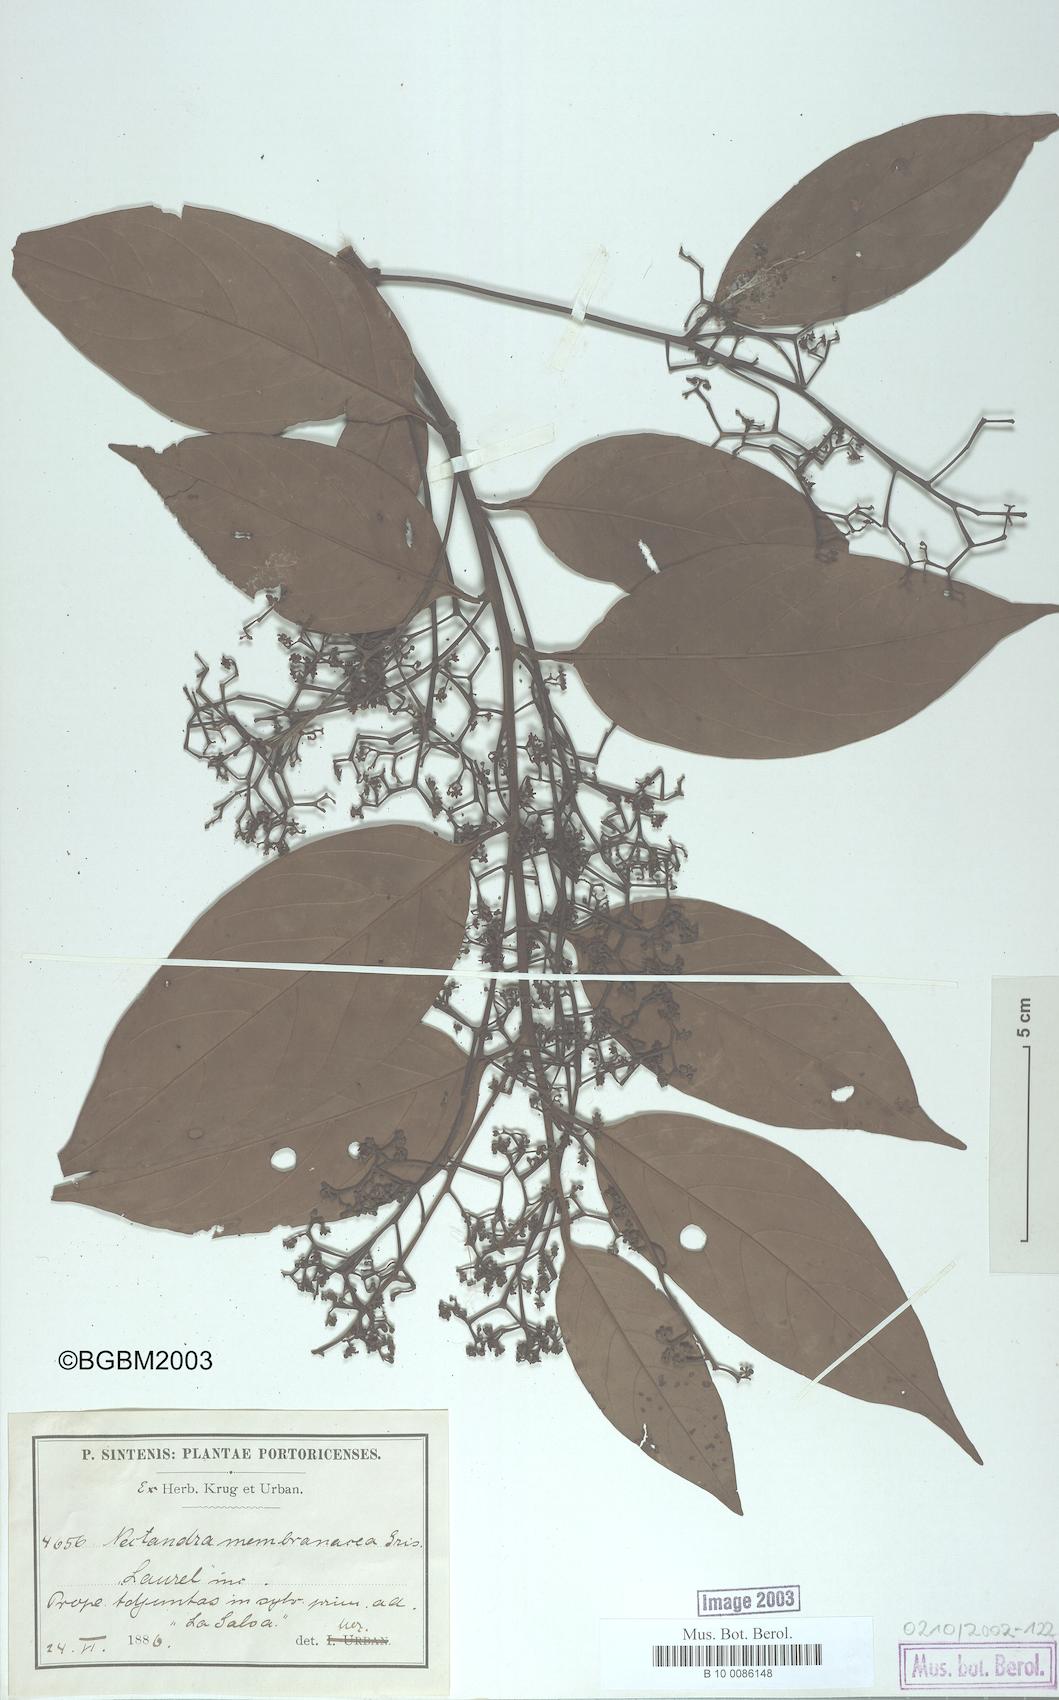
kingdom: Plantae
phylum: Tracheophyta
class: Magnoliopsida
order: Laurales
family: Lauraceae
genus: Nectandra
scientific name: Nectandra membranacea
